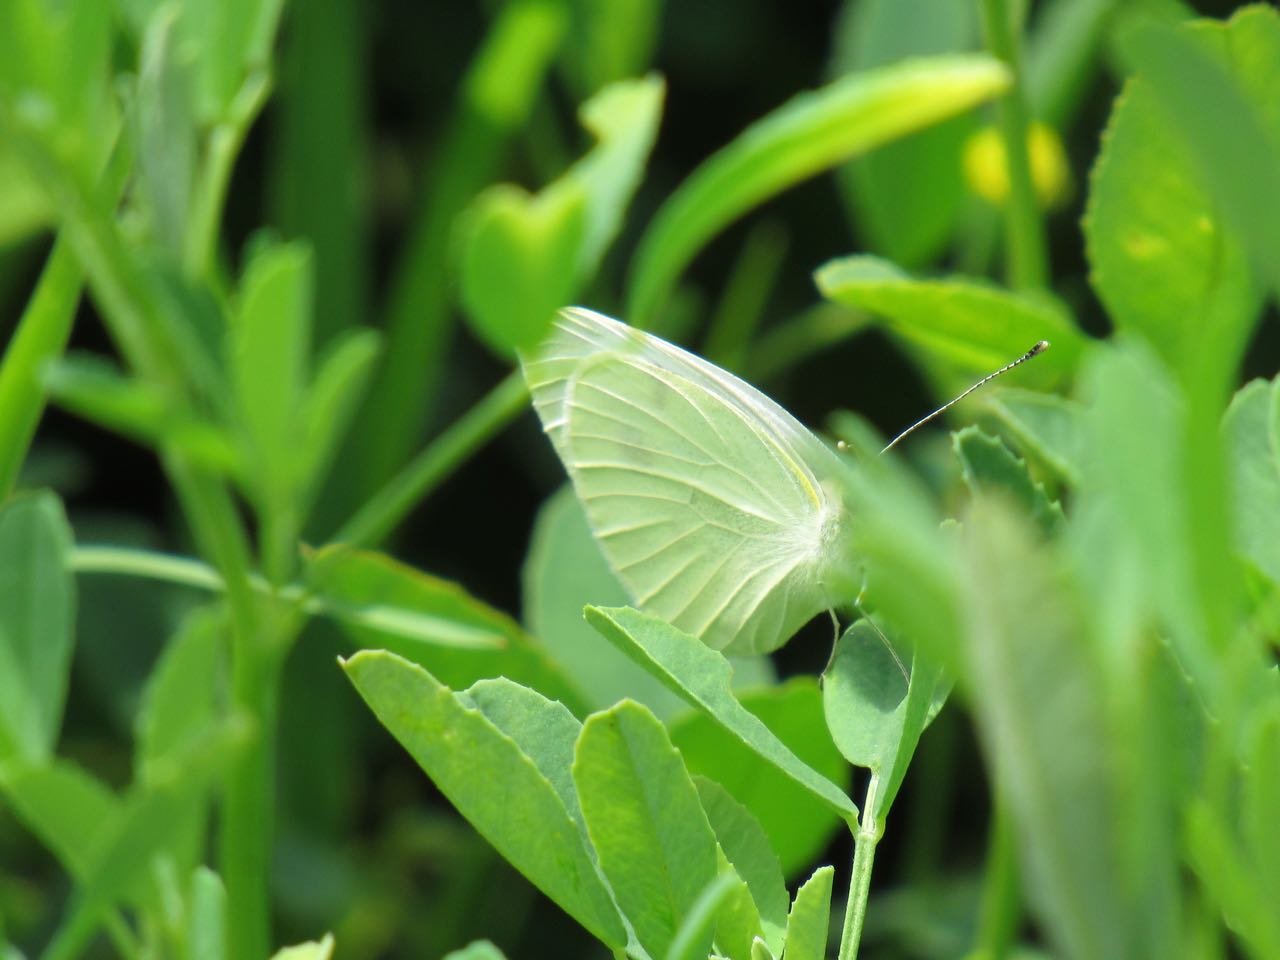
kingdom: Animalia
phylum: Arthropoda
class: Insecta
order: Lepidoptera
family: Pieridae
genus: Pieris
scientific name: Pieris rapae
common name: Cabbage White
